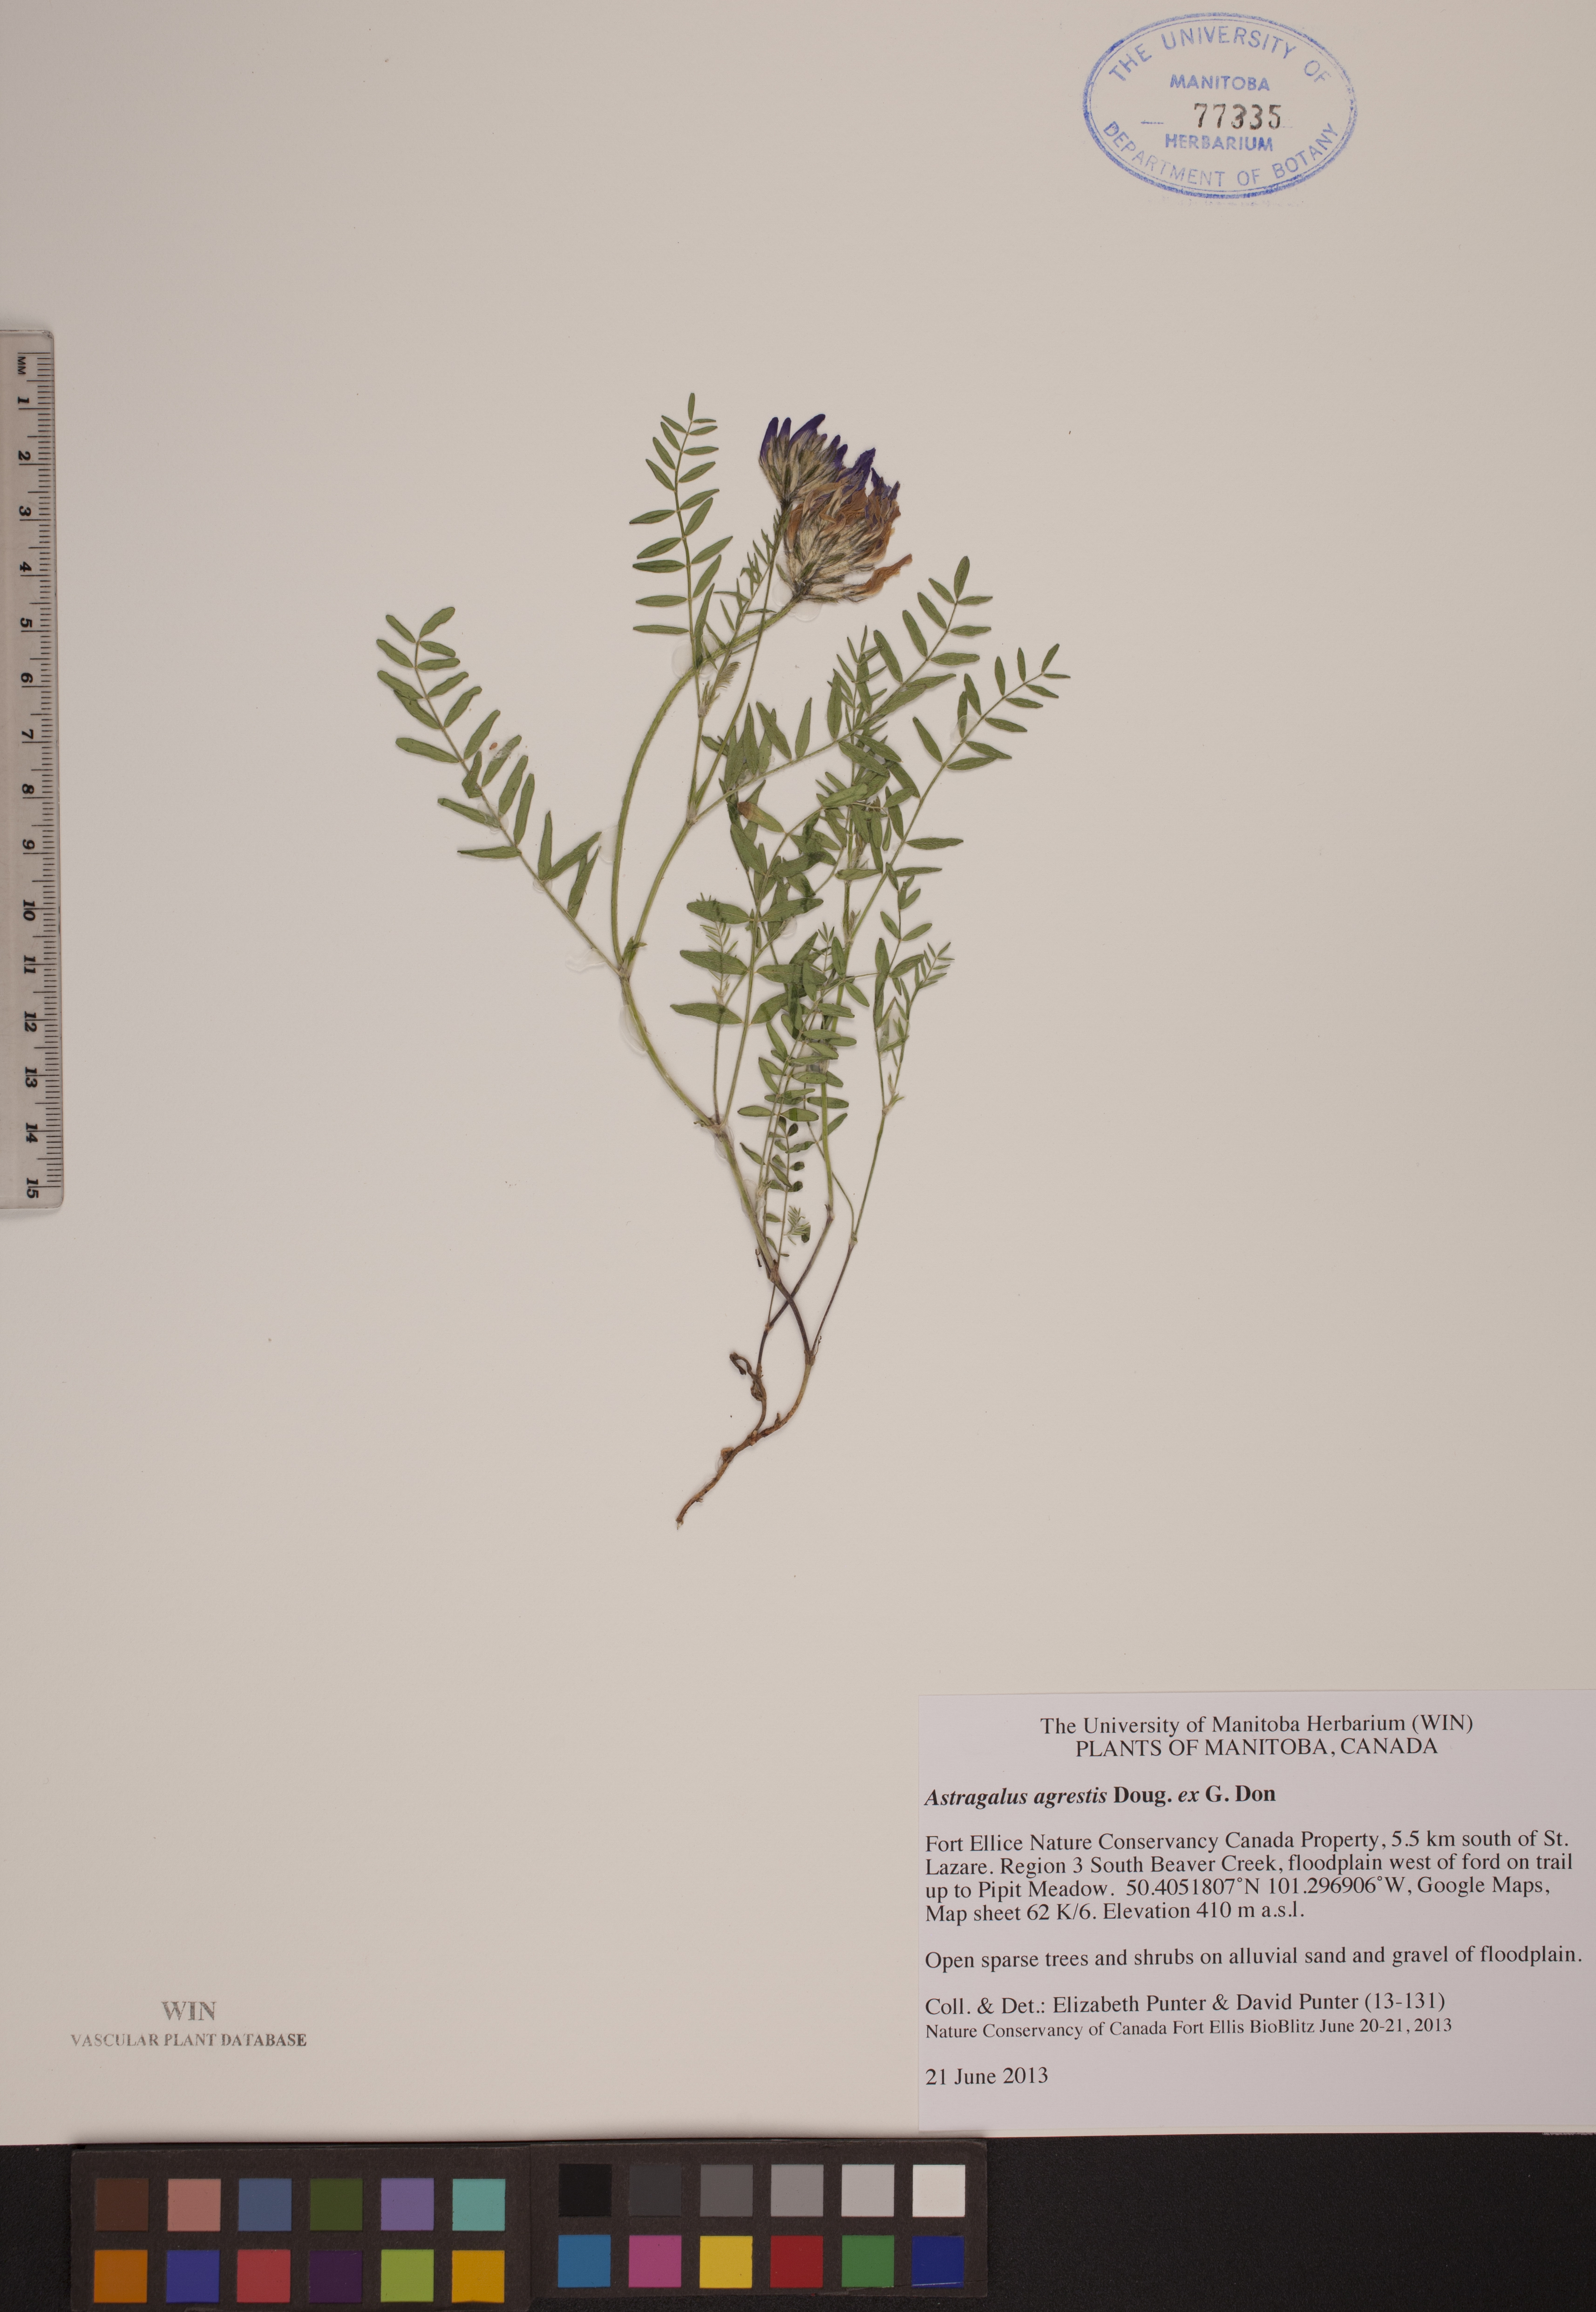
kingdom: Plantae
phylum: Tracheophyta
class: Magnoliopsida
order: Fabales
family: Fabaceae
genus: Astragalus
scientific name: Astragalus agrestis
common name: Field milk-vetch
